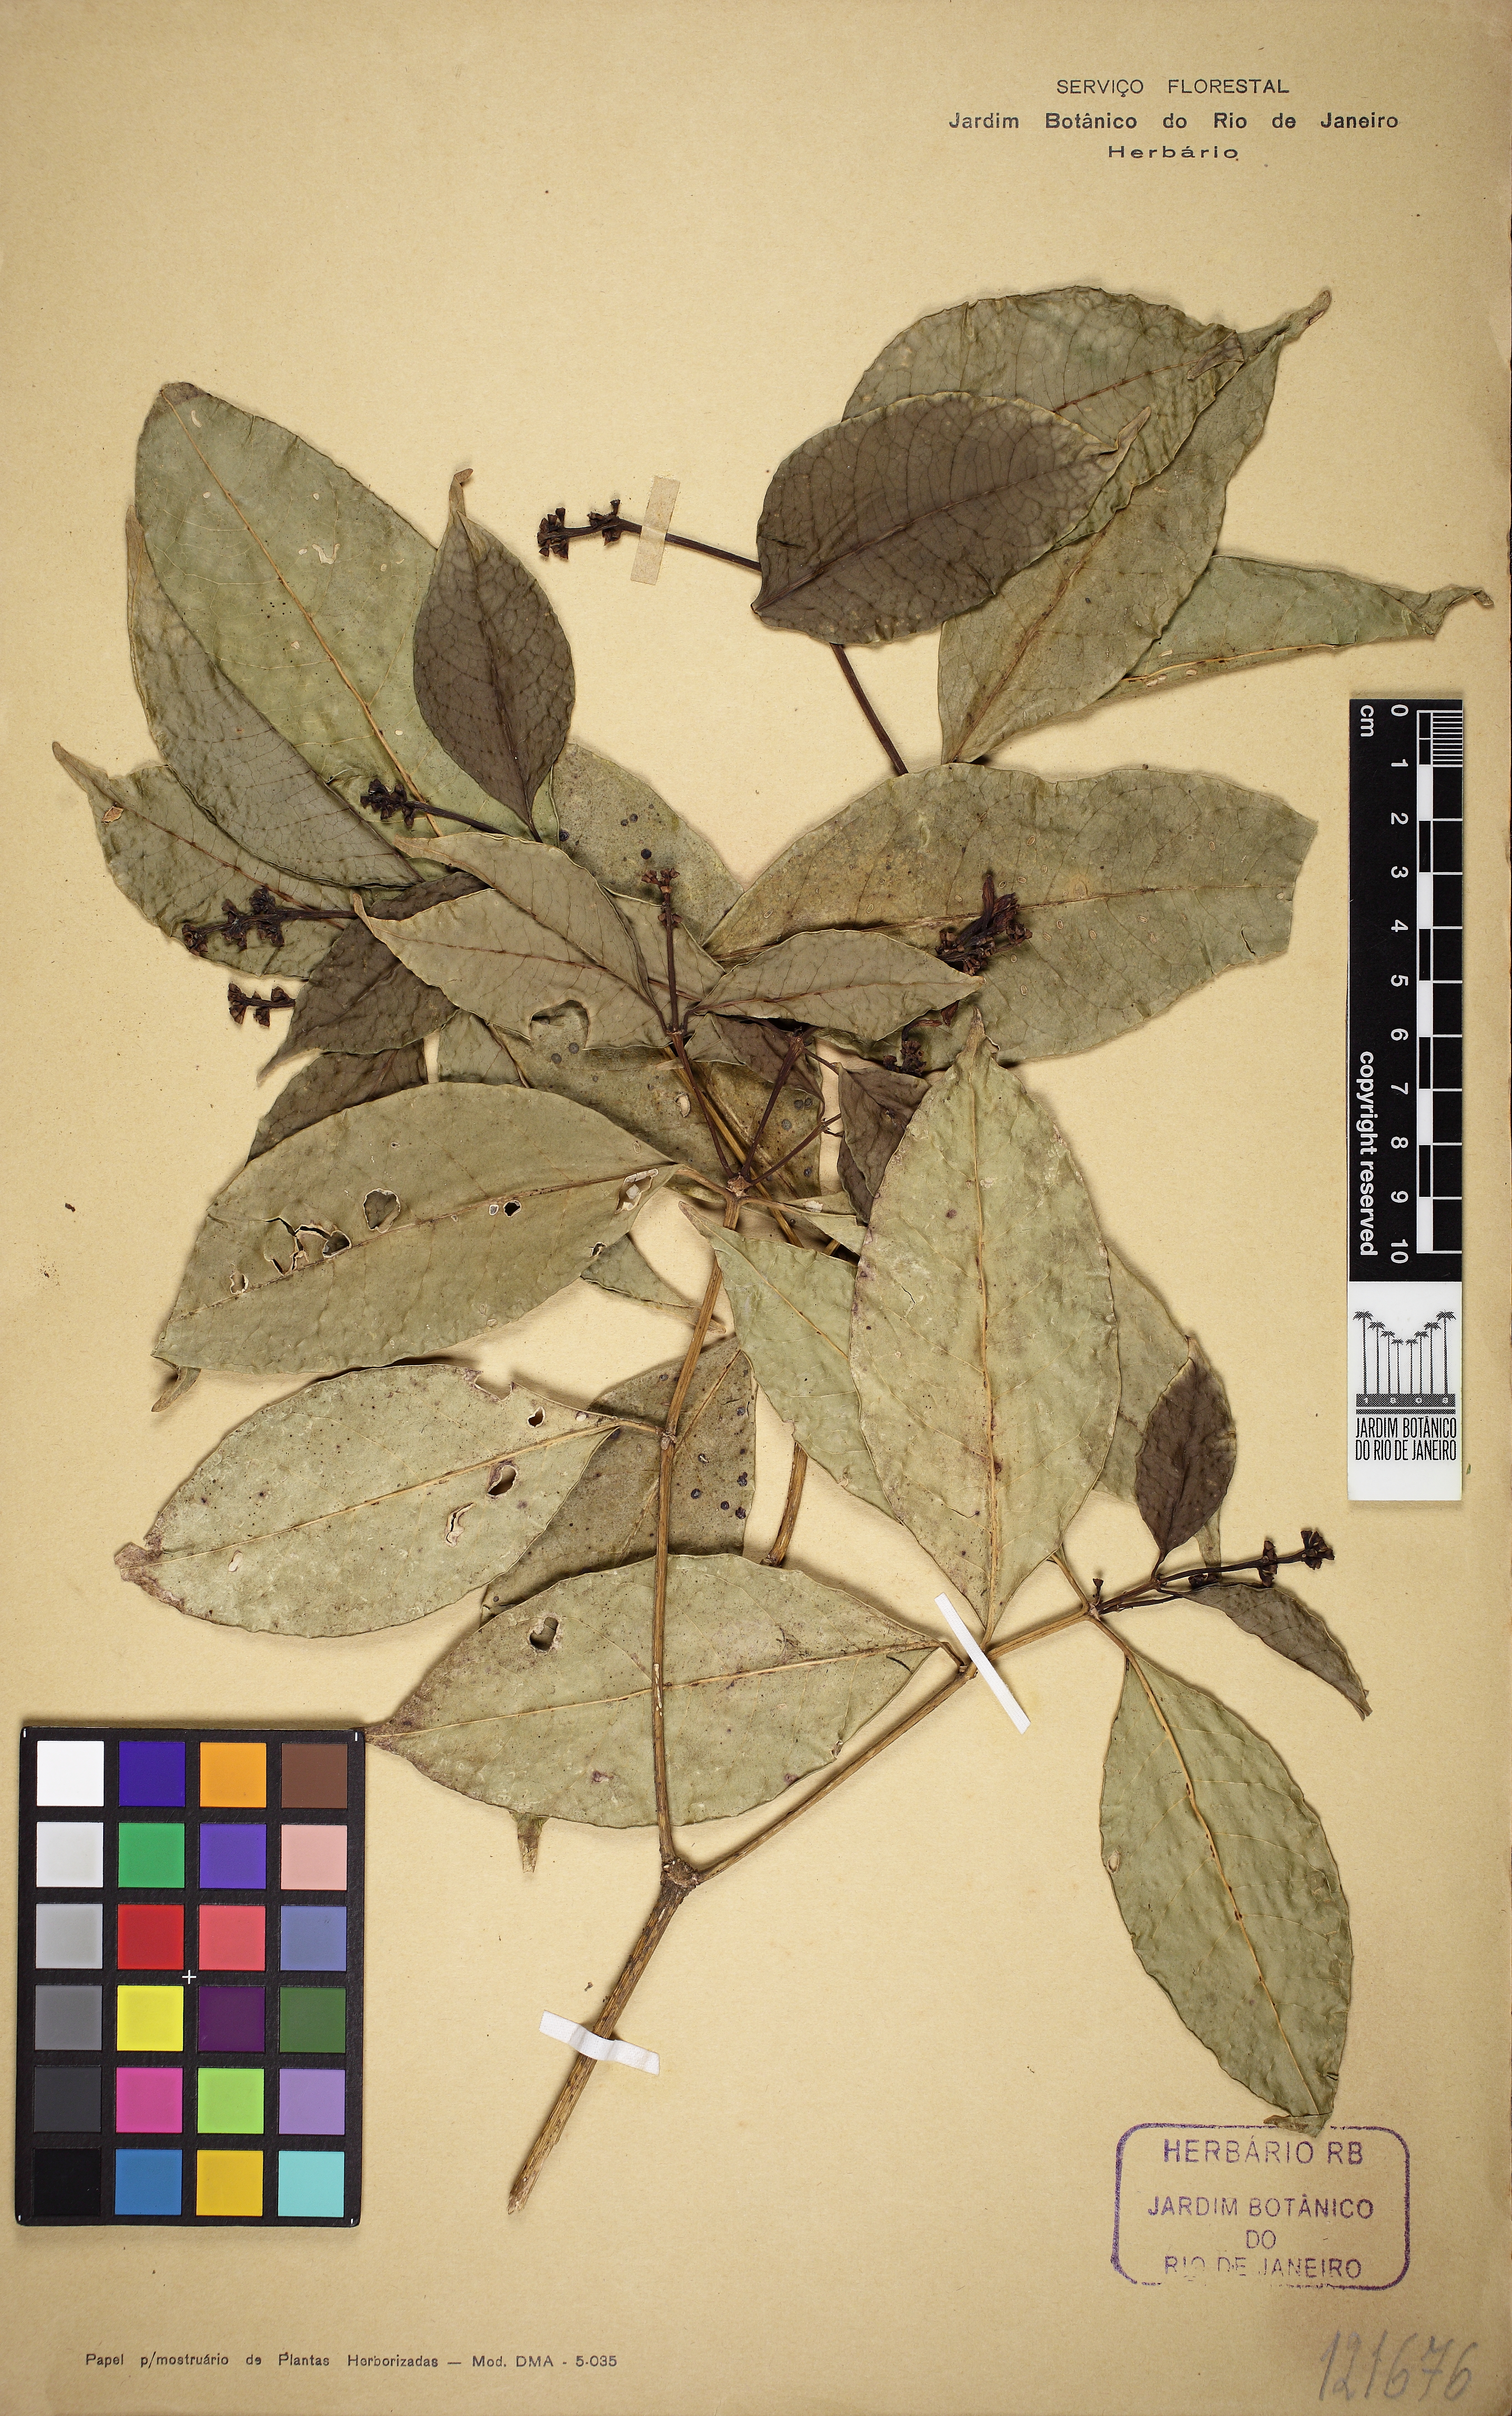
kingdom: Plantae
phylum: Tracheophyta
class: Magnoliopsida
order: Gentianales
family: Rubiaceae
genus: Coussarea
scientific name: Coussarea contracta
